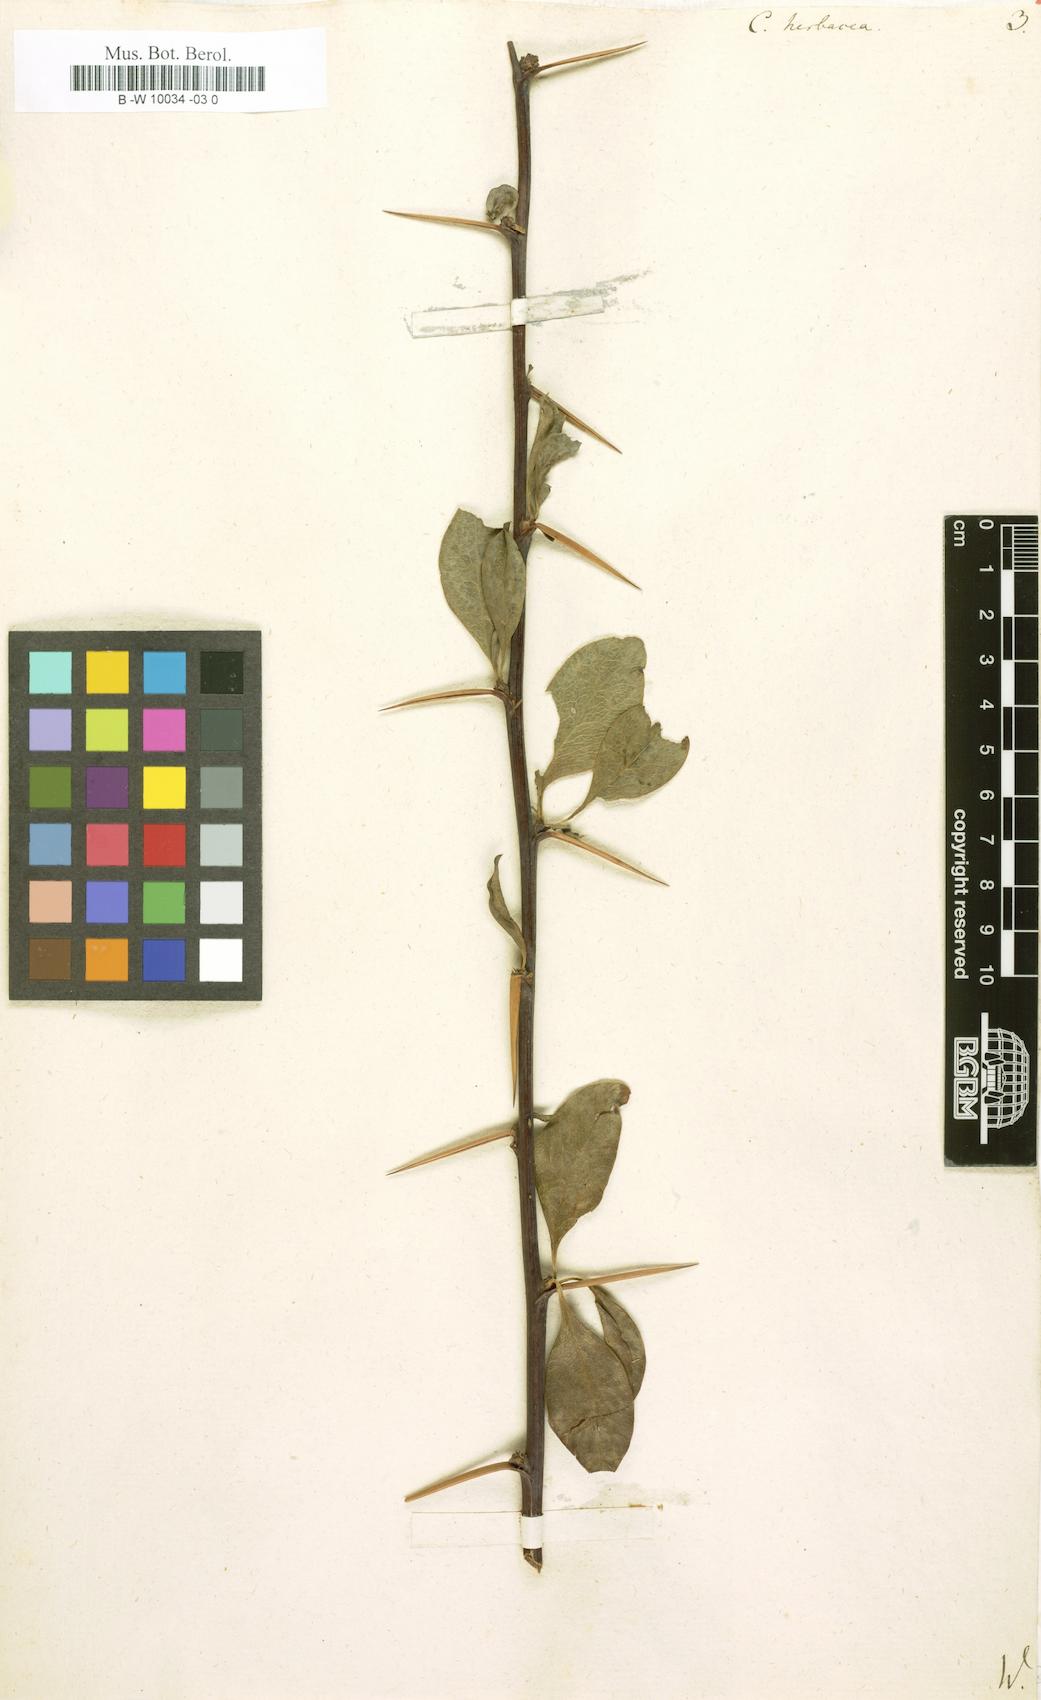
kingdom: Plantae
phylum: Tracheophyta
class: Magnoliopsida
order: Brassicales
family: Capparaceae
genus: Capparis
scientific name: Capparis spinosa
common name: Caper
